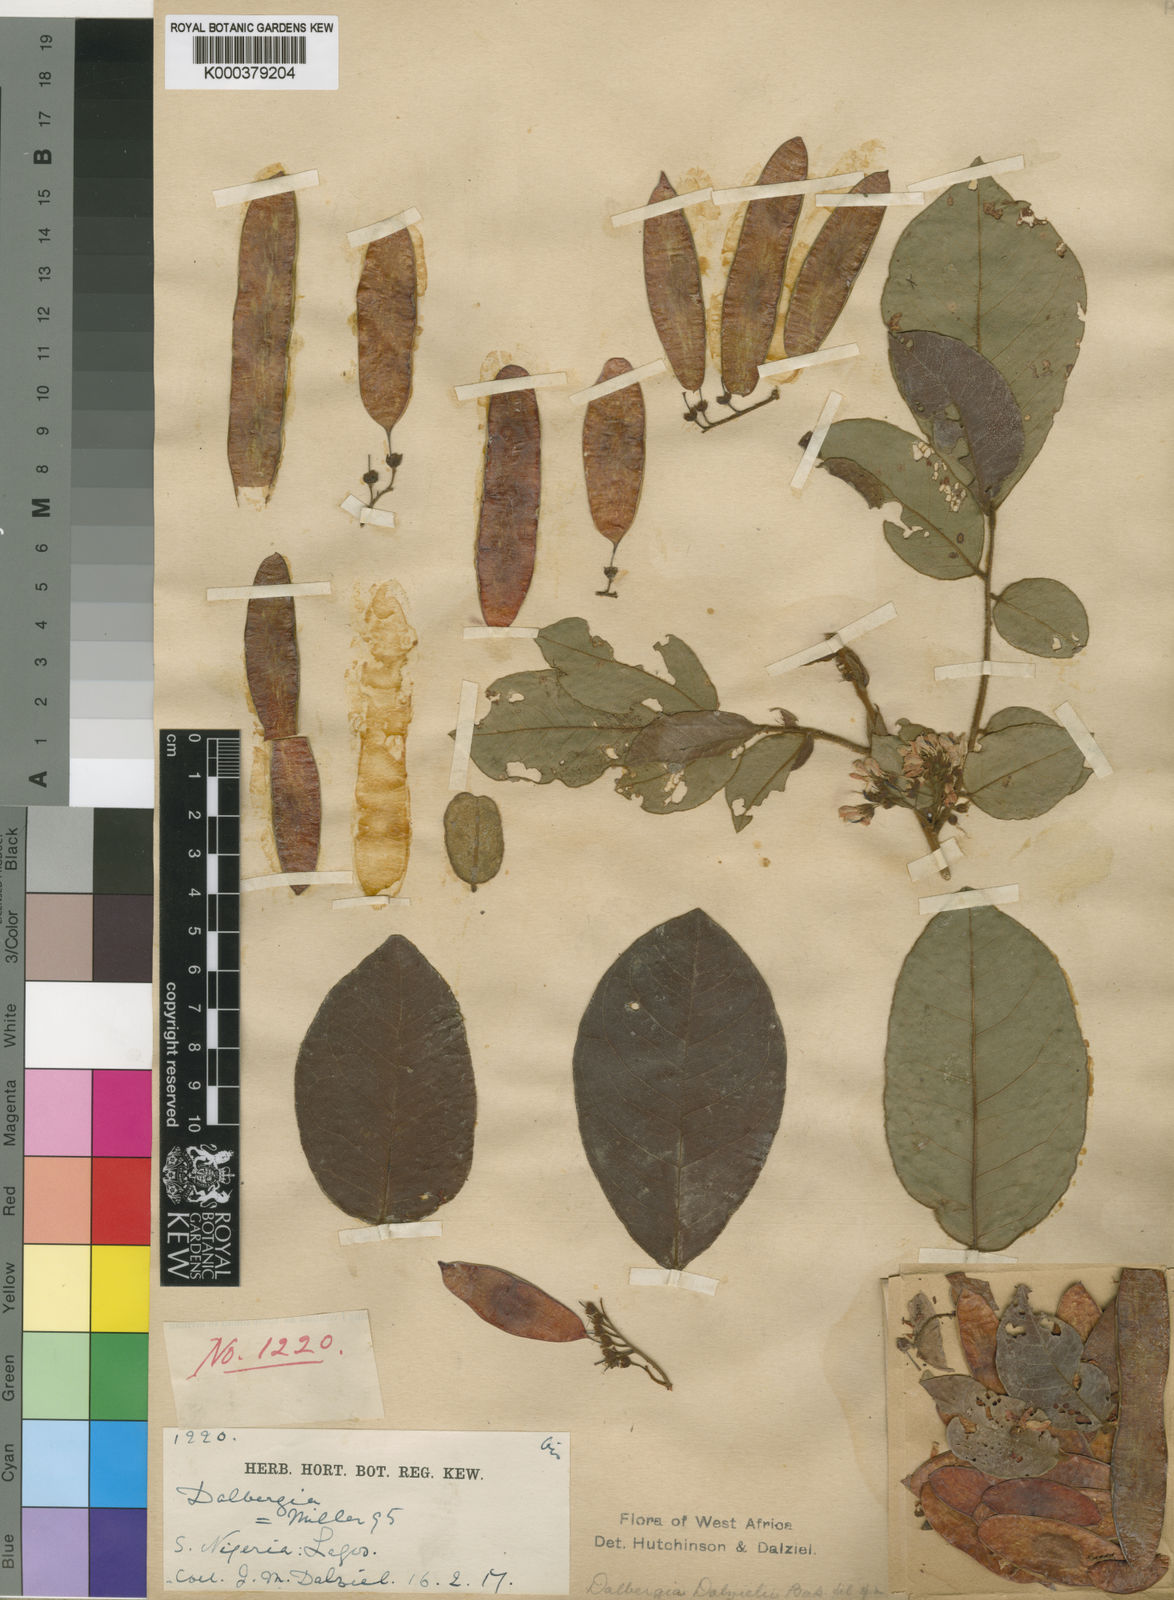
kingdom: Plantae
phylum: Tracheophyta
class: Magnoliopsida
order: Fabales
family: Fabaceae
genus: Dalbergia
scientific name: Dalbergia dalzielii ex
